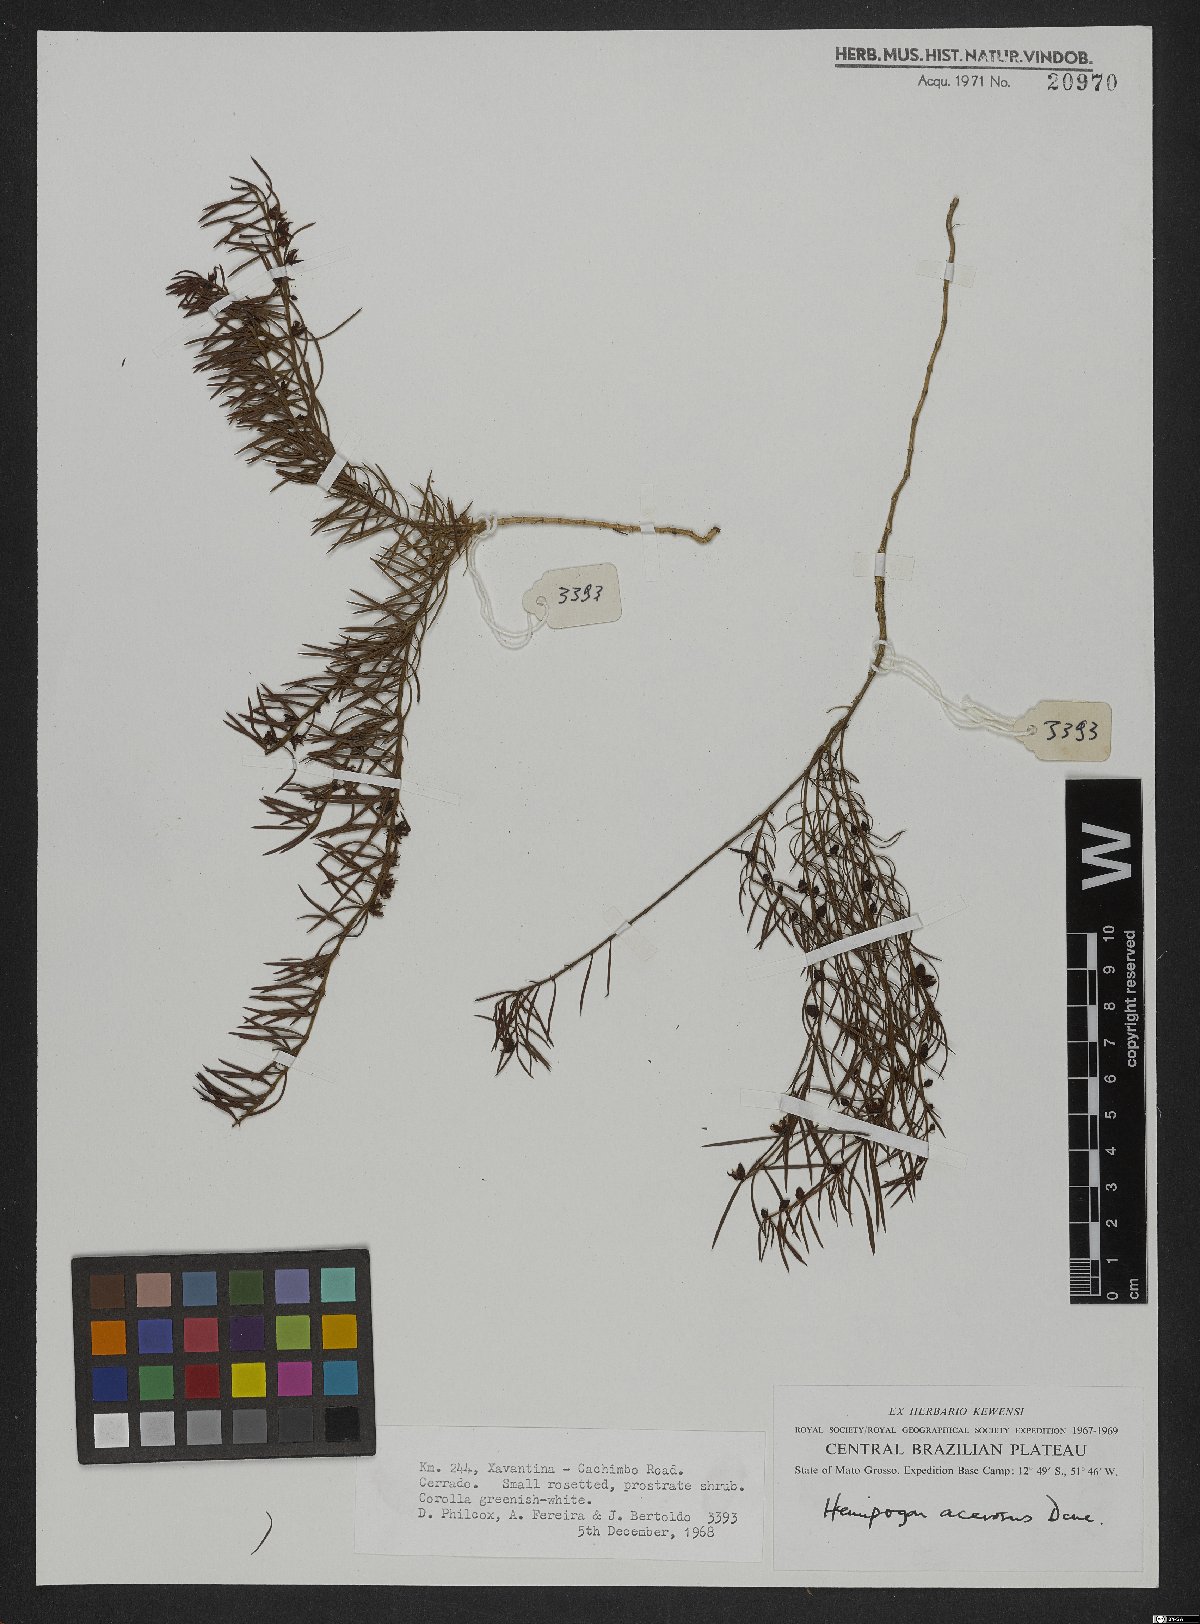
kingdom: Plantae
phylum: Tracheophyta
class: Magnoliopsida
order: Gentianales
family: Apocynaceae
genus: Hemipogon
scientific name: Hemipogon acerosus
